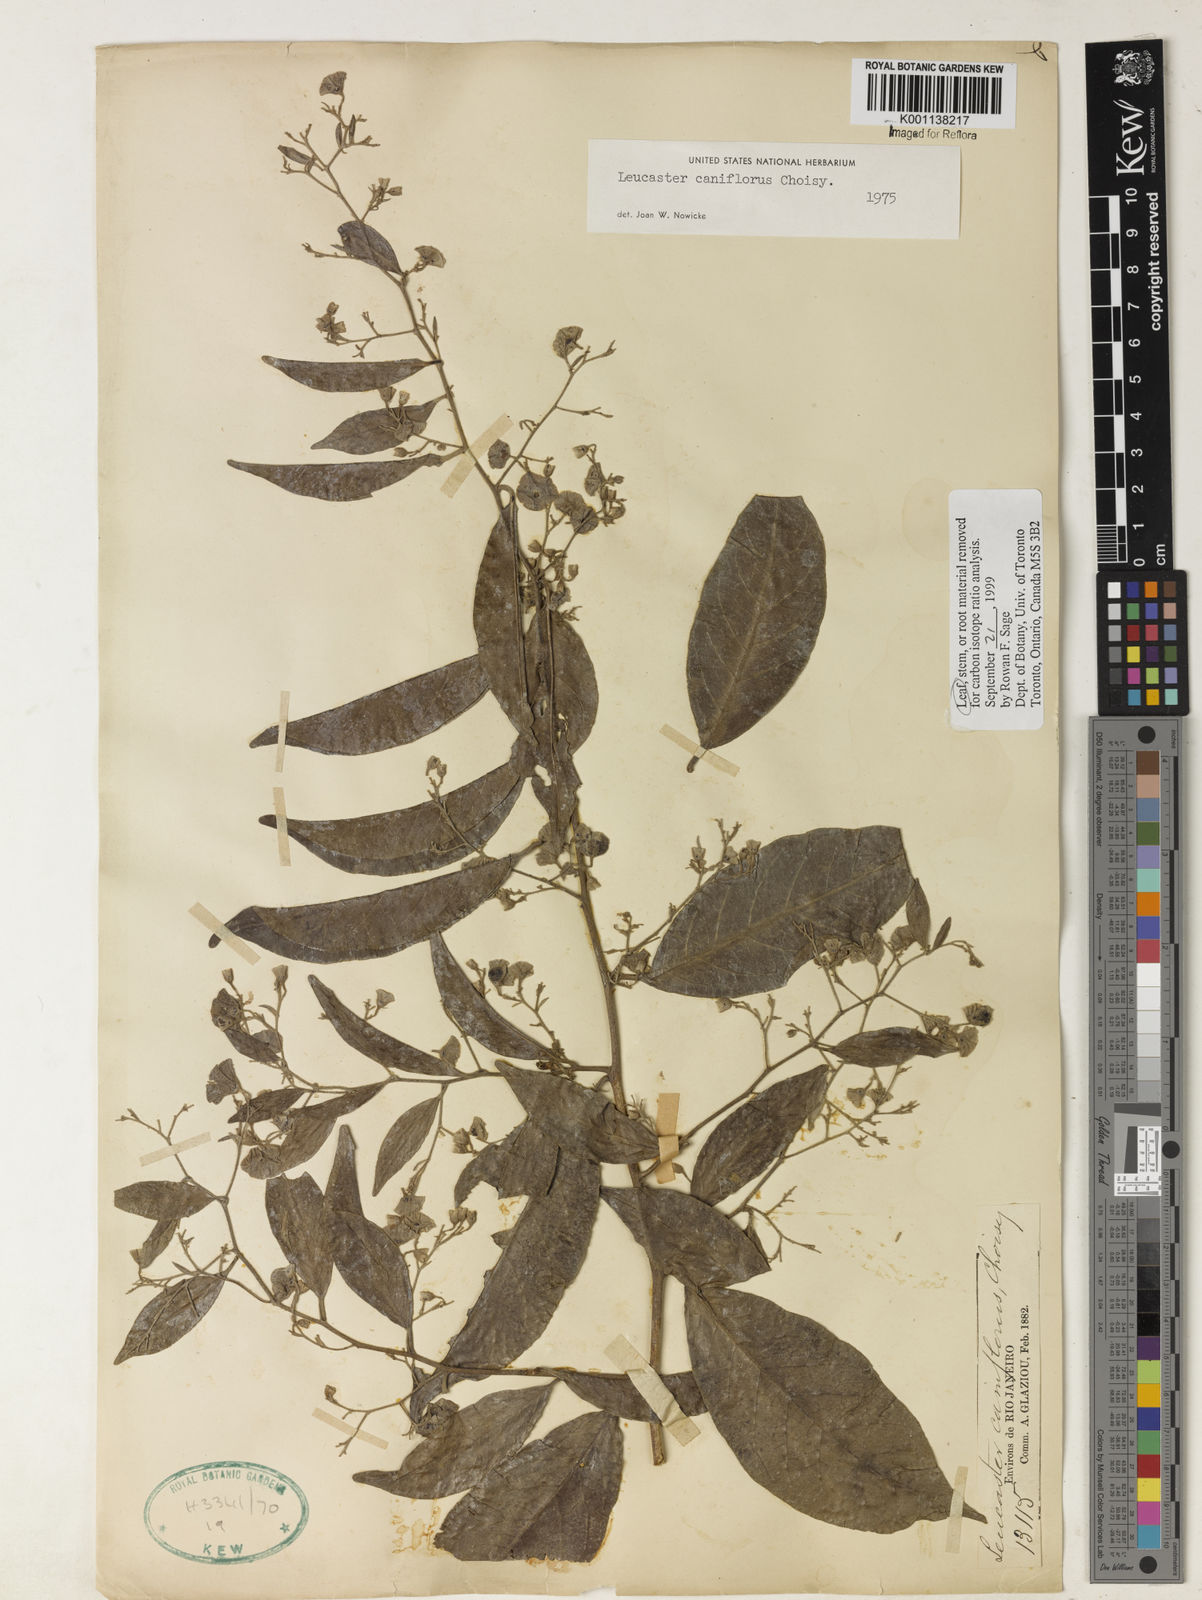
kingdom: Plantae
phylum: Tracheophyta
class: Magnoliopsida
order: Caryophyllales
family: Nyctaginaceae
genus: Leucaster
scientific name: Leucaster caniflorus
